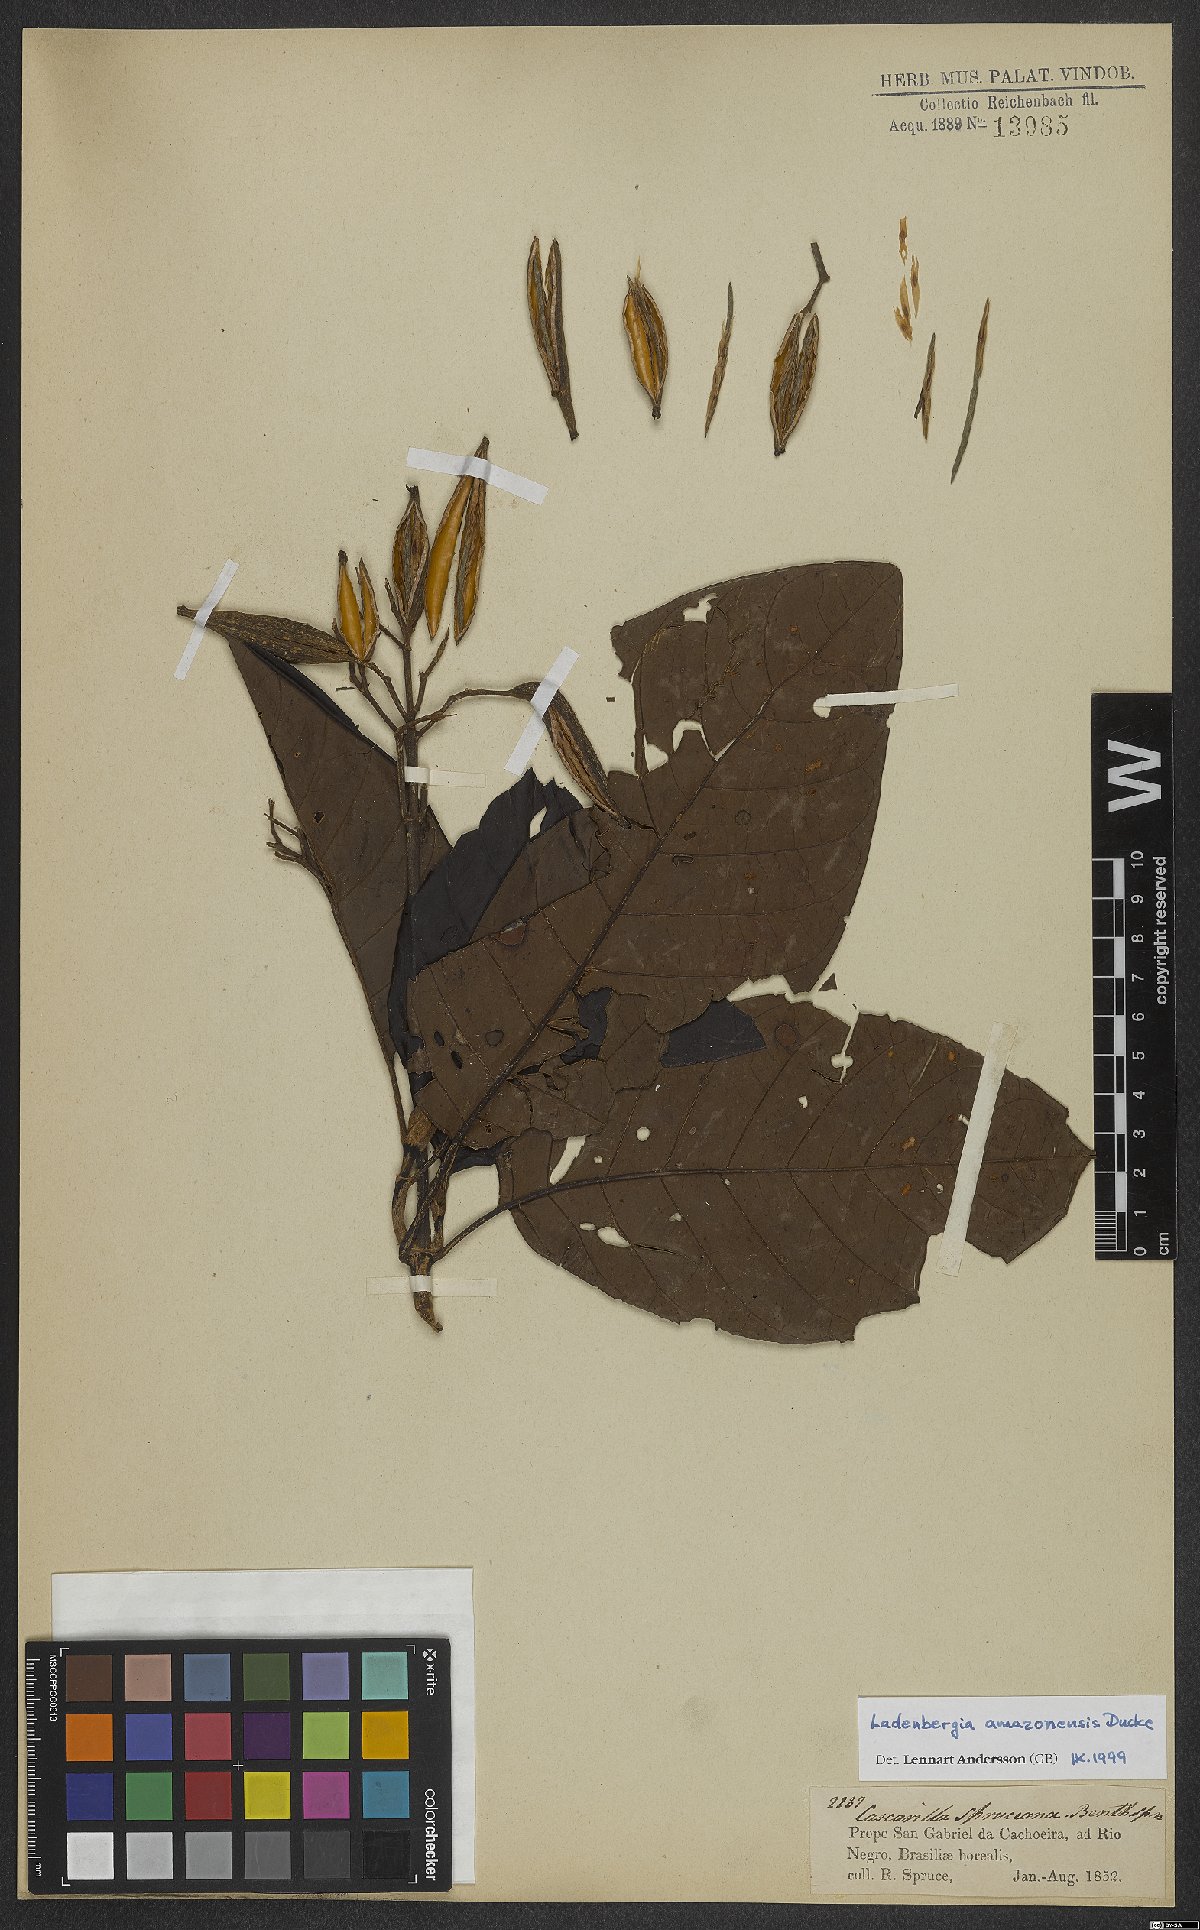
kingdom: Plantae
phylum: Tracheophyta
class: Magnoliopsida
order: Gentianales
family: Rubiaceae
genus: Ladenbergia
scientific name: Ladenbergia amazonensis
